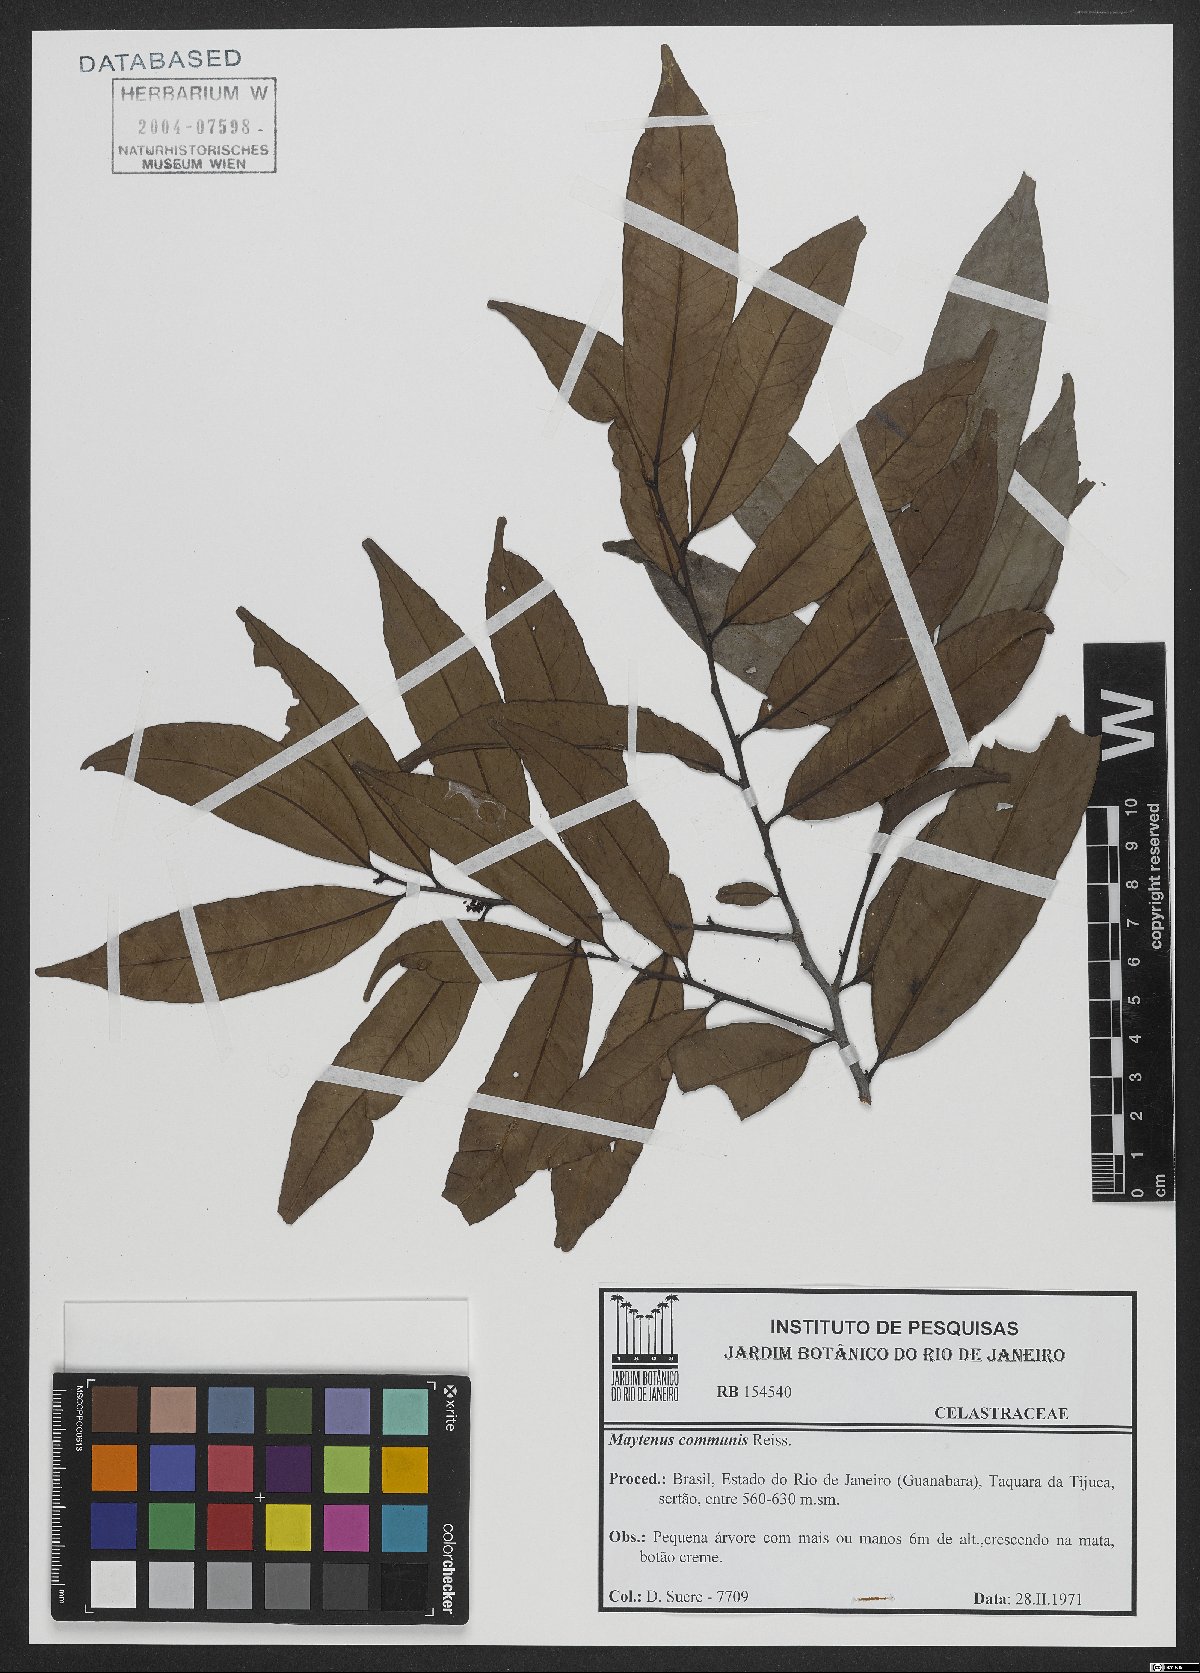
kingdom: Plantae
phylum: Tracheophyta
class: Magnoliopsida
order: Celastrales
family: Celastraceae
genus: Monteverdia
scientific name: Monteverdia communis
